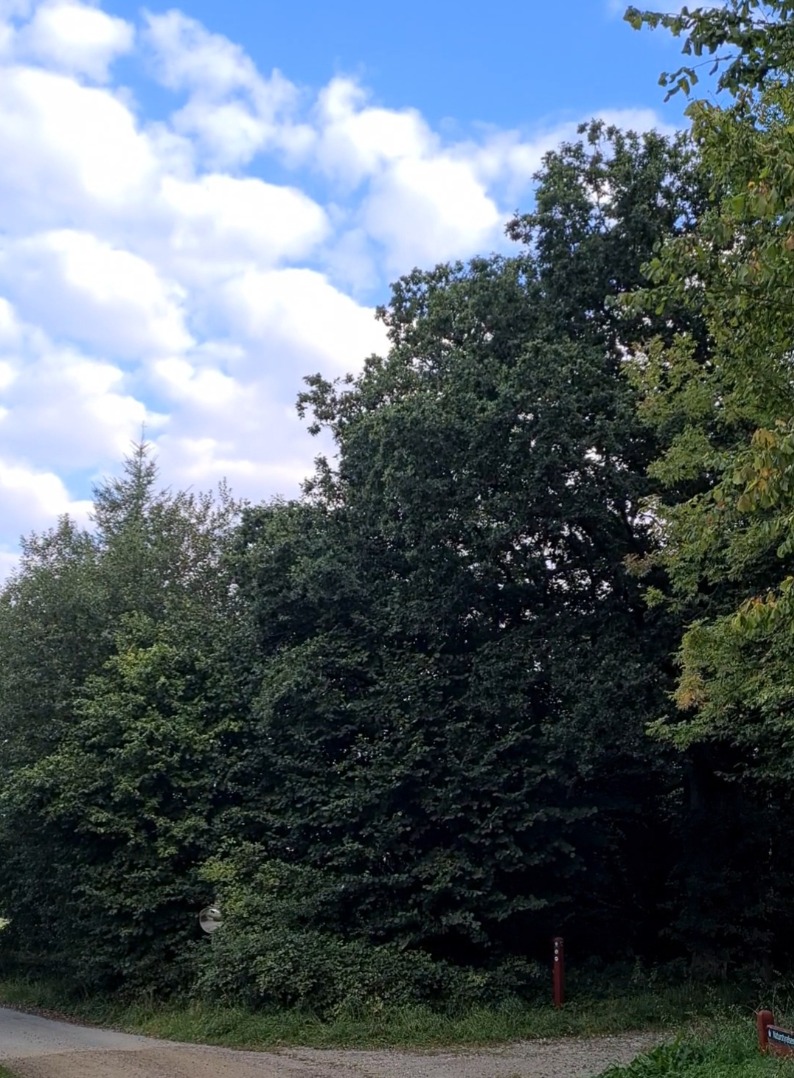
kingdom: Animalia
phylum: Chordata
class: Aves
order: Piciformes
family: Picidae
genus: Dryocopus
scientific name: Dryocopus martius
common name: Sortspætte
